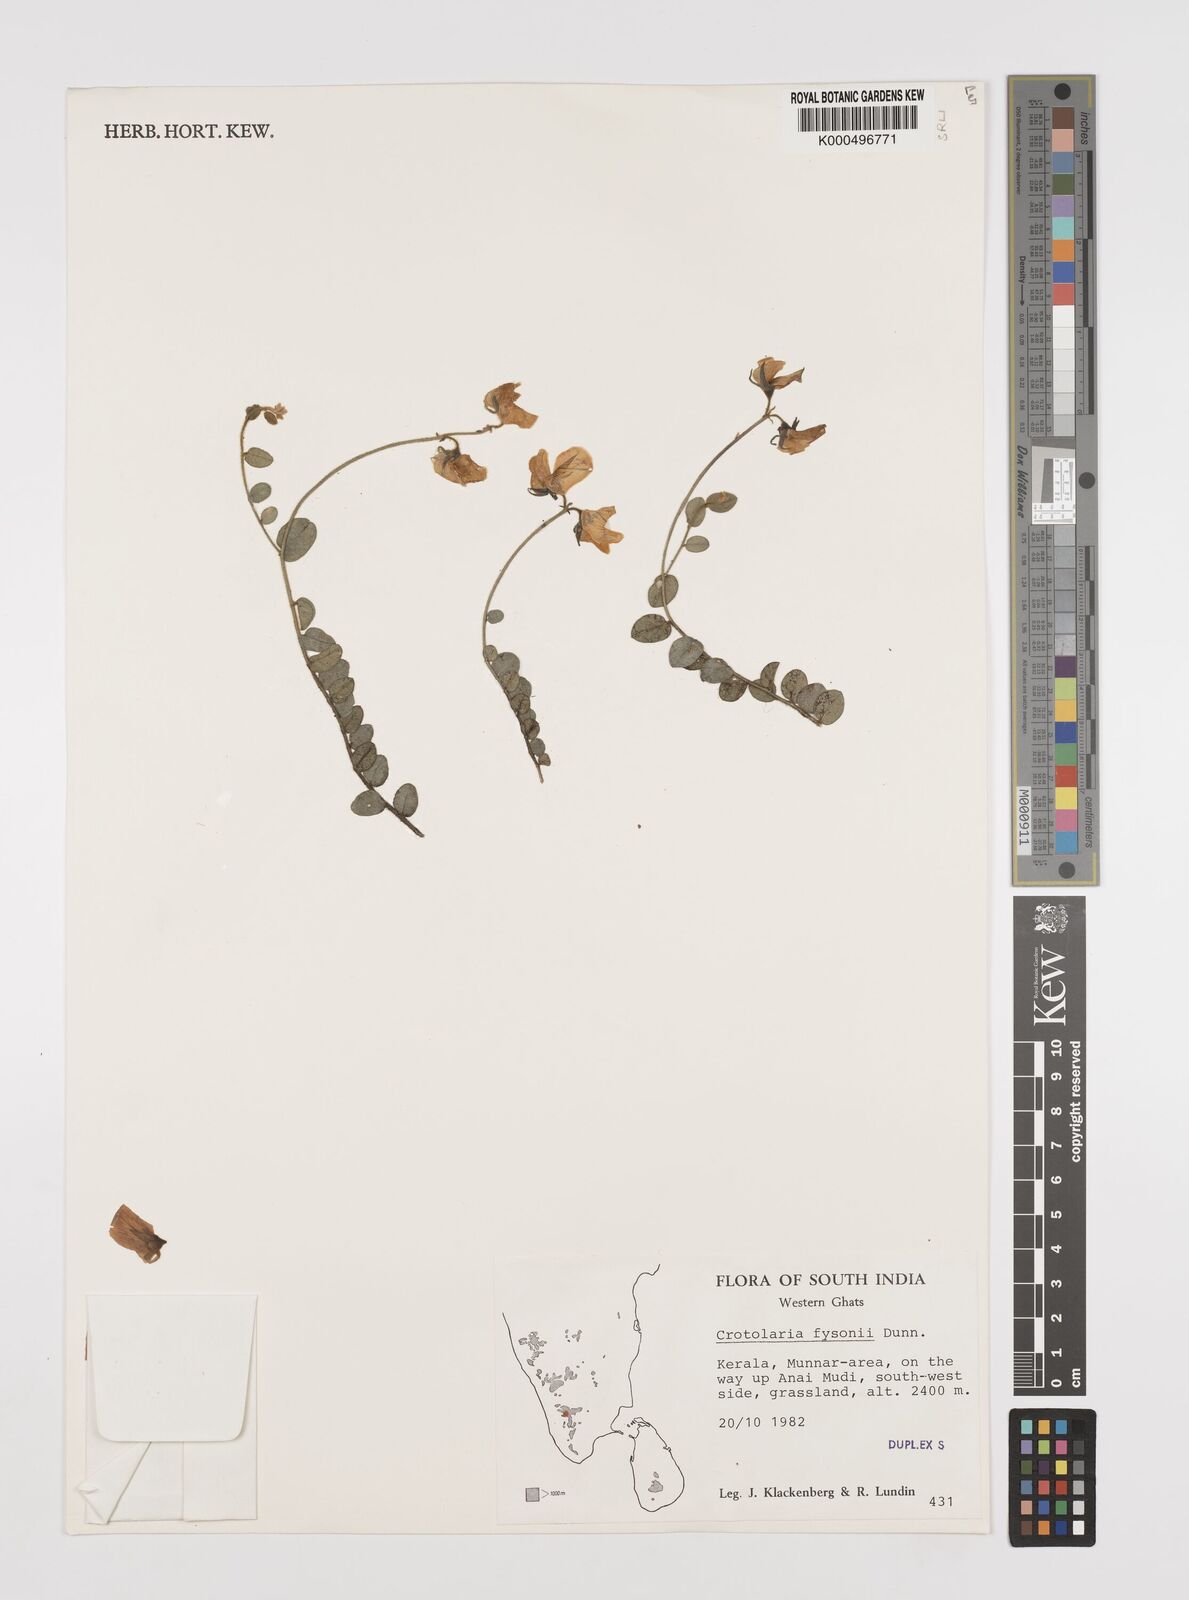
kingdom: Plantae
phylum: Tracheophyta
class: Magnoliopsida
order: Fabales
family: Fabaceae
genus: Crotalaria
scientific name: Crotalaria fysonii
